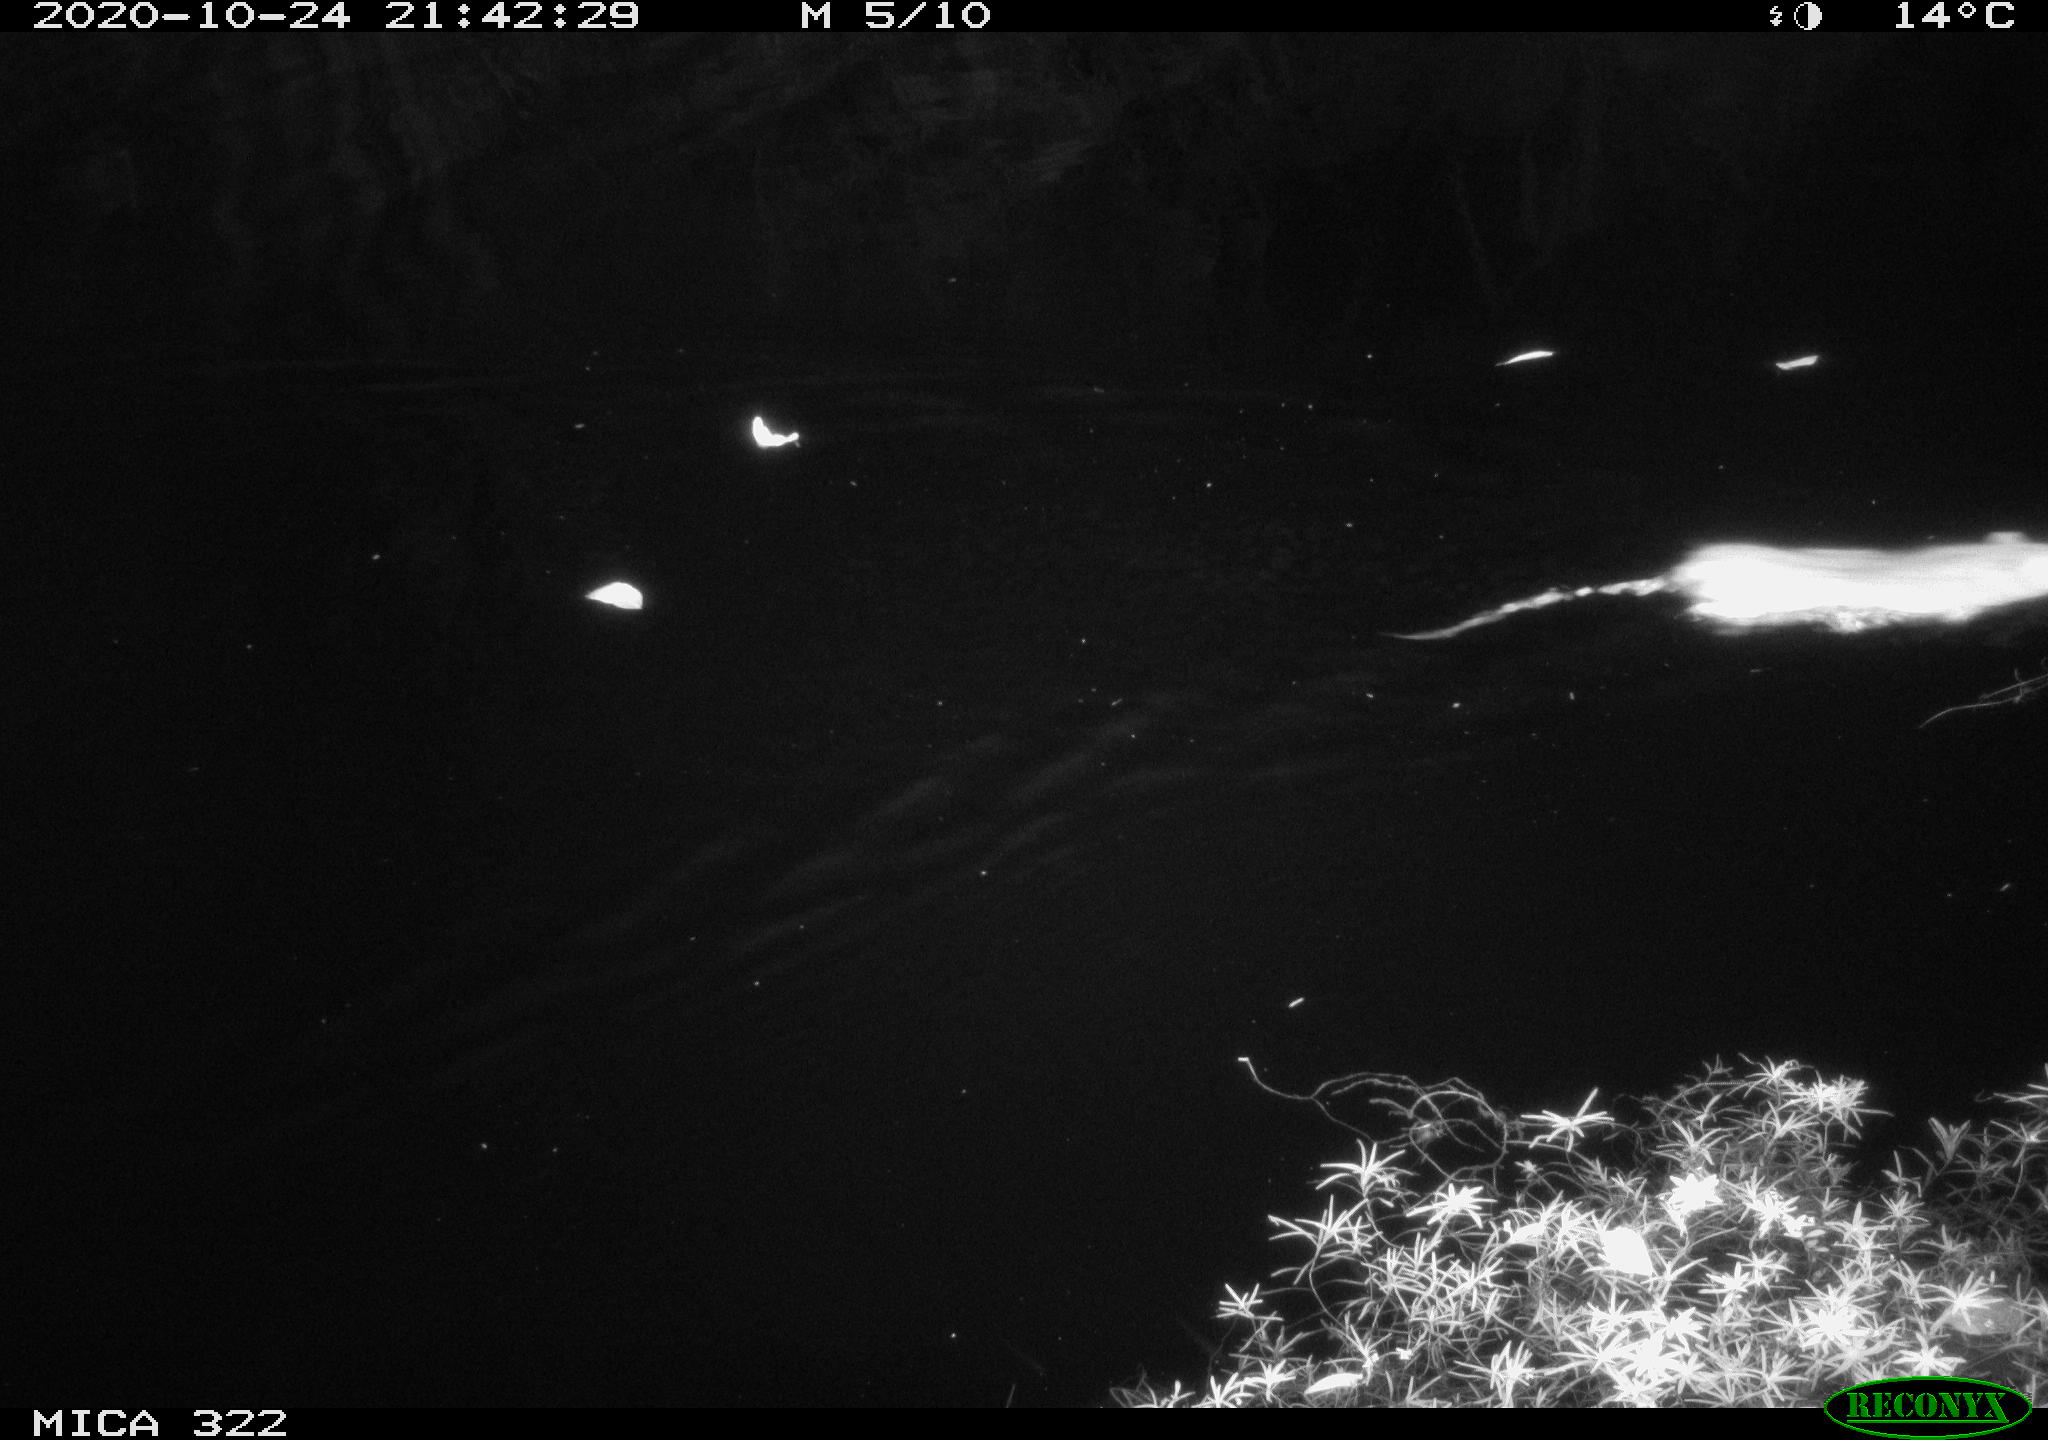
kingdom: Animalia
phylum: Chordata
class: Mammalia
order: Rodentia
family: Muridae
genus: Rattus
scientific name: Rattus norvegicus
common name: Brown rat
